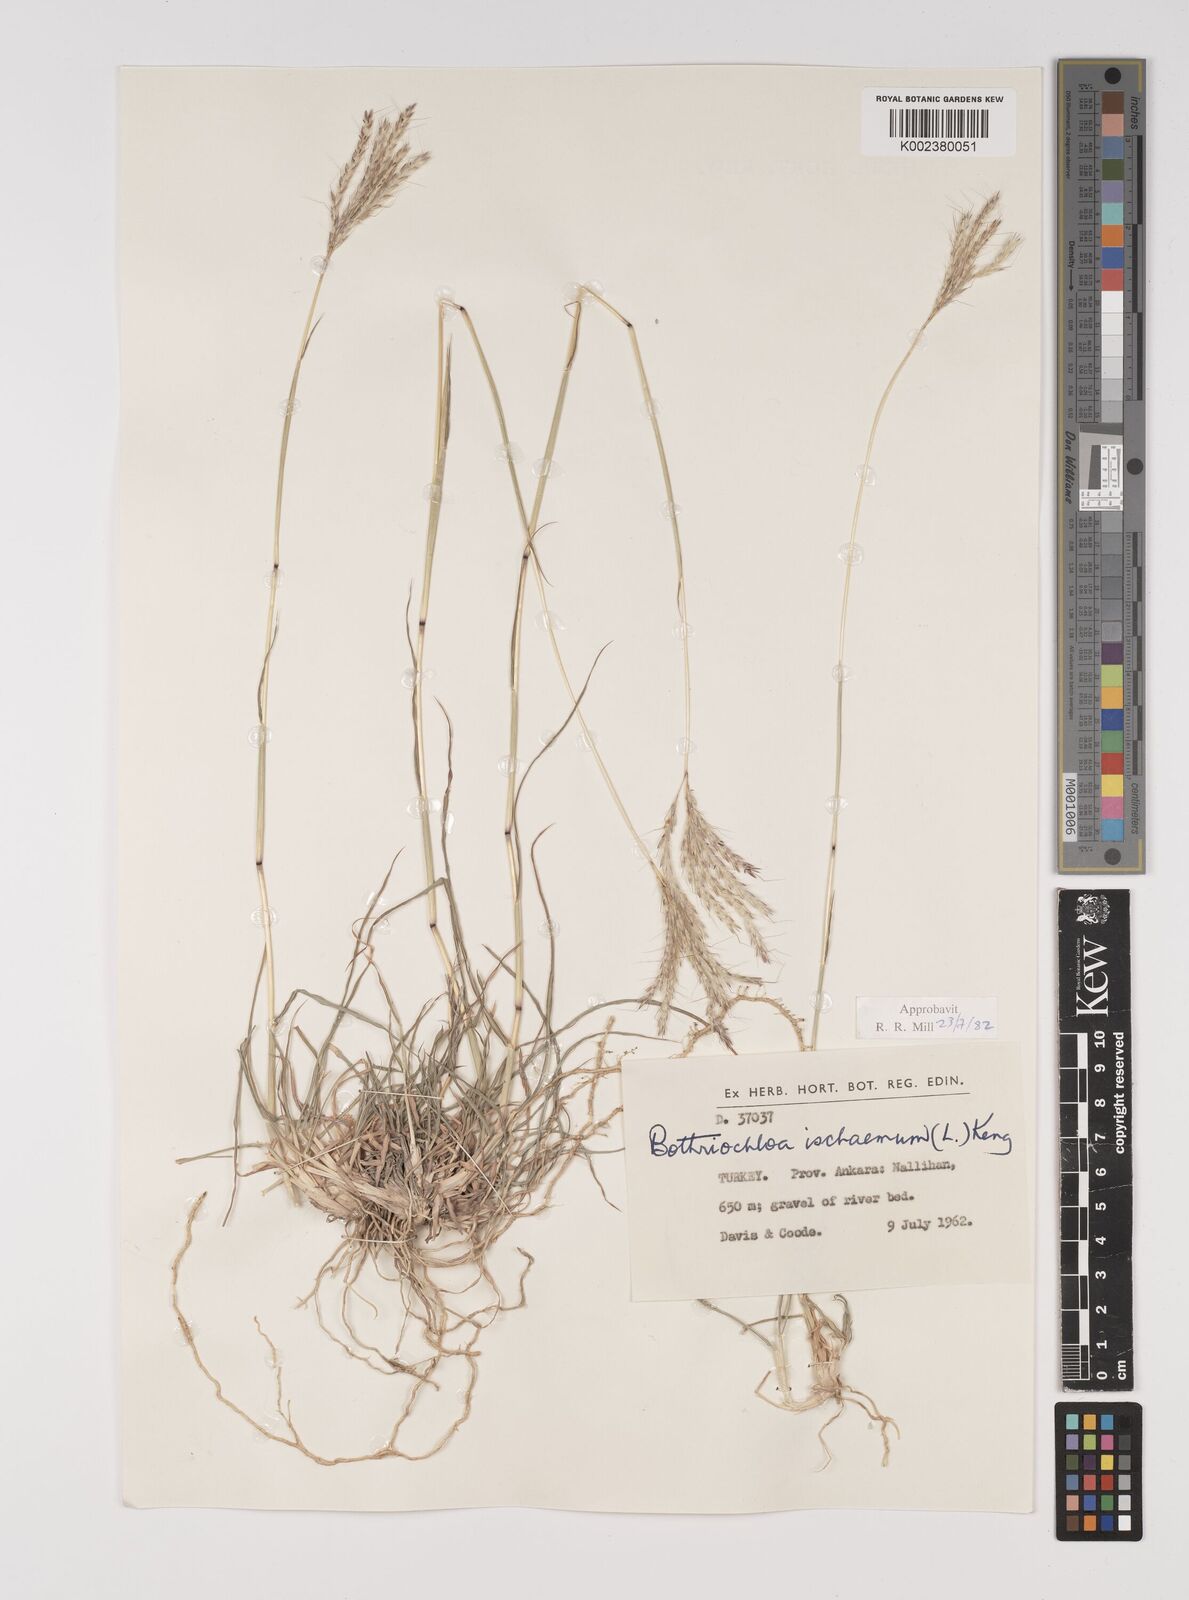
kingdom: Plantae
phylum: Tracheophyta
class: Liliopsida
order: Poales
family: Poaceae
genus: Bothriochloa
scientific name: Bothriochloa ischaemum
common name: Yellow bluestem
